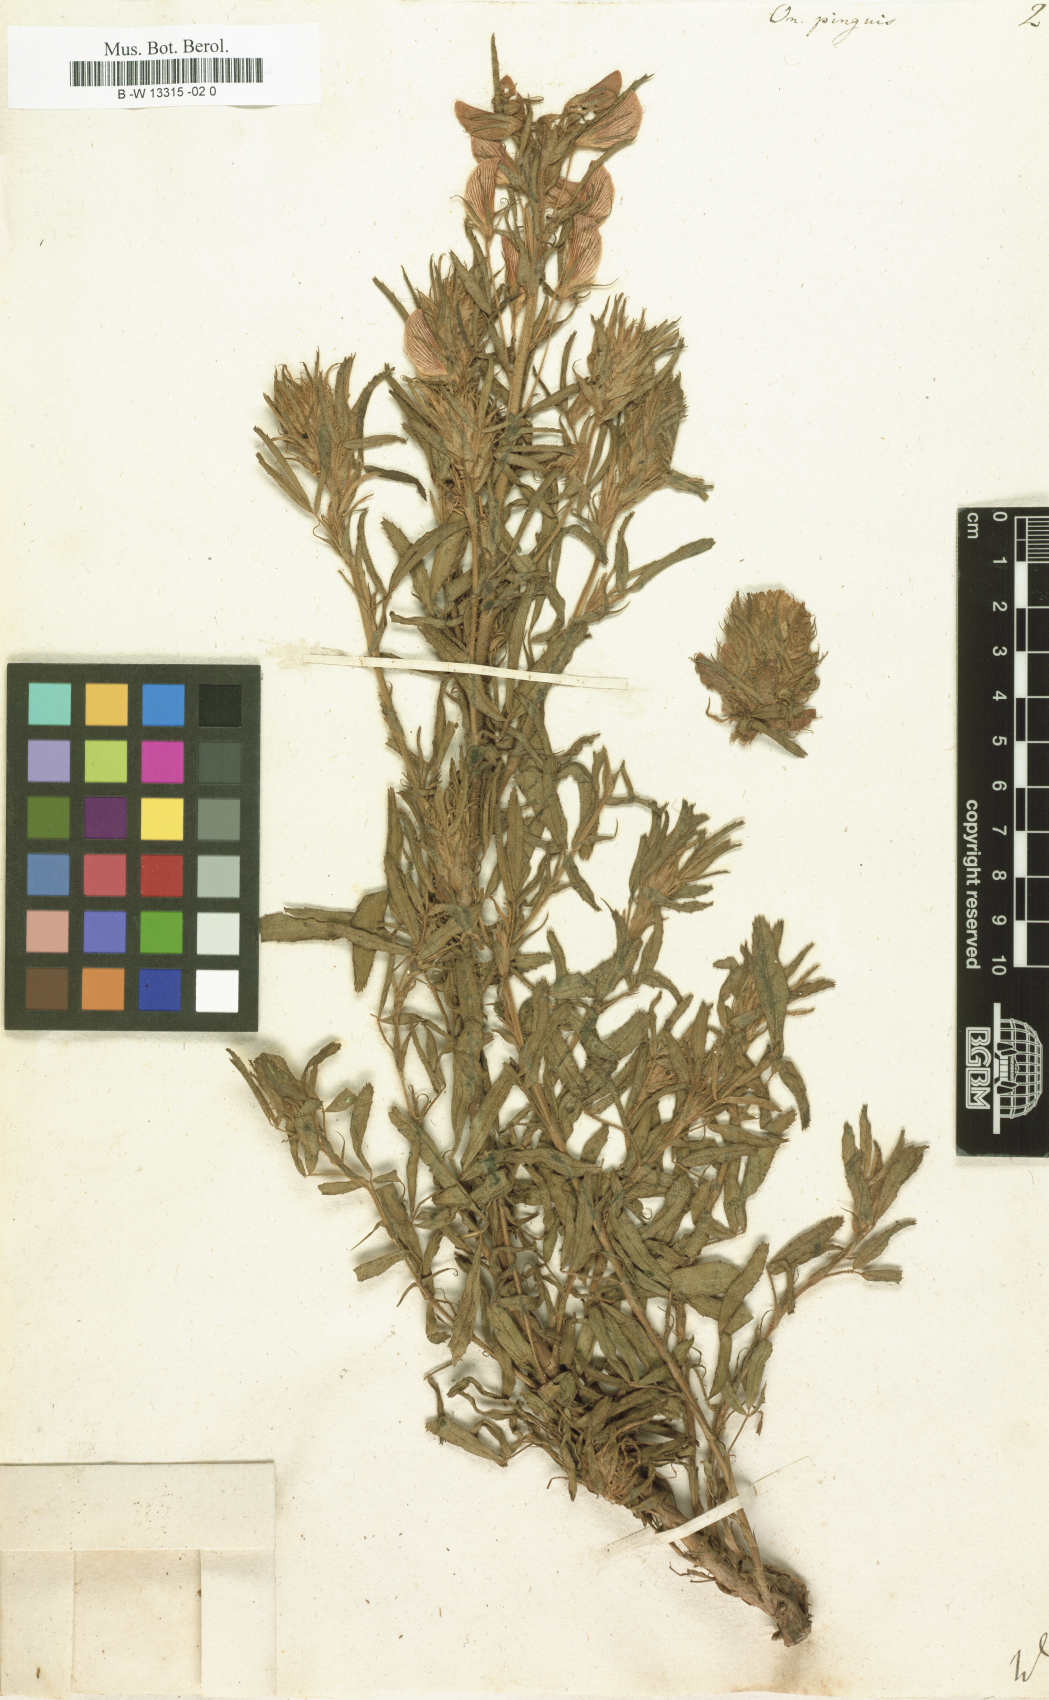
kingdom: Plantae
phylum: Tracheophyta
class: Magnoliopsida
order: Fabales
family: Fabaceae
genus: Ononis
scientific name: Ononis natrix
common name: Yellow restharrow
